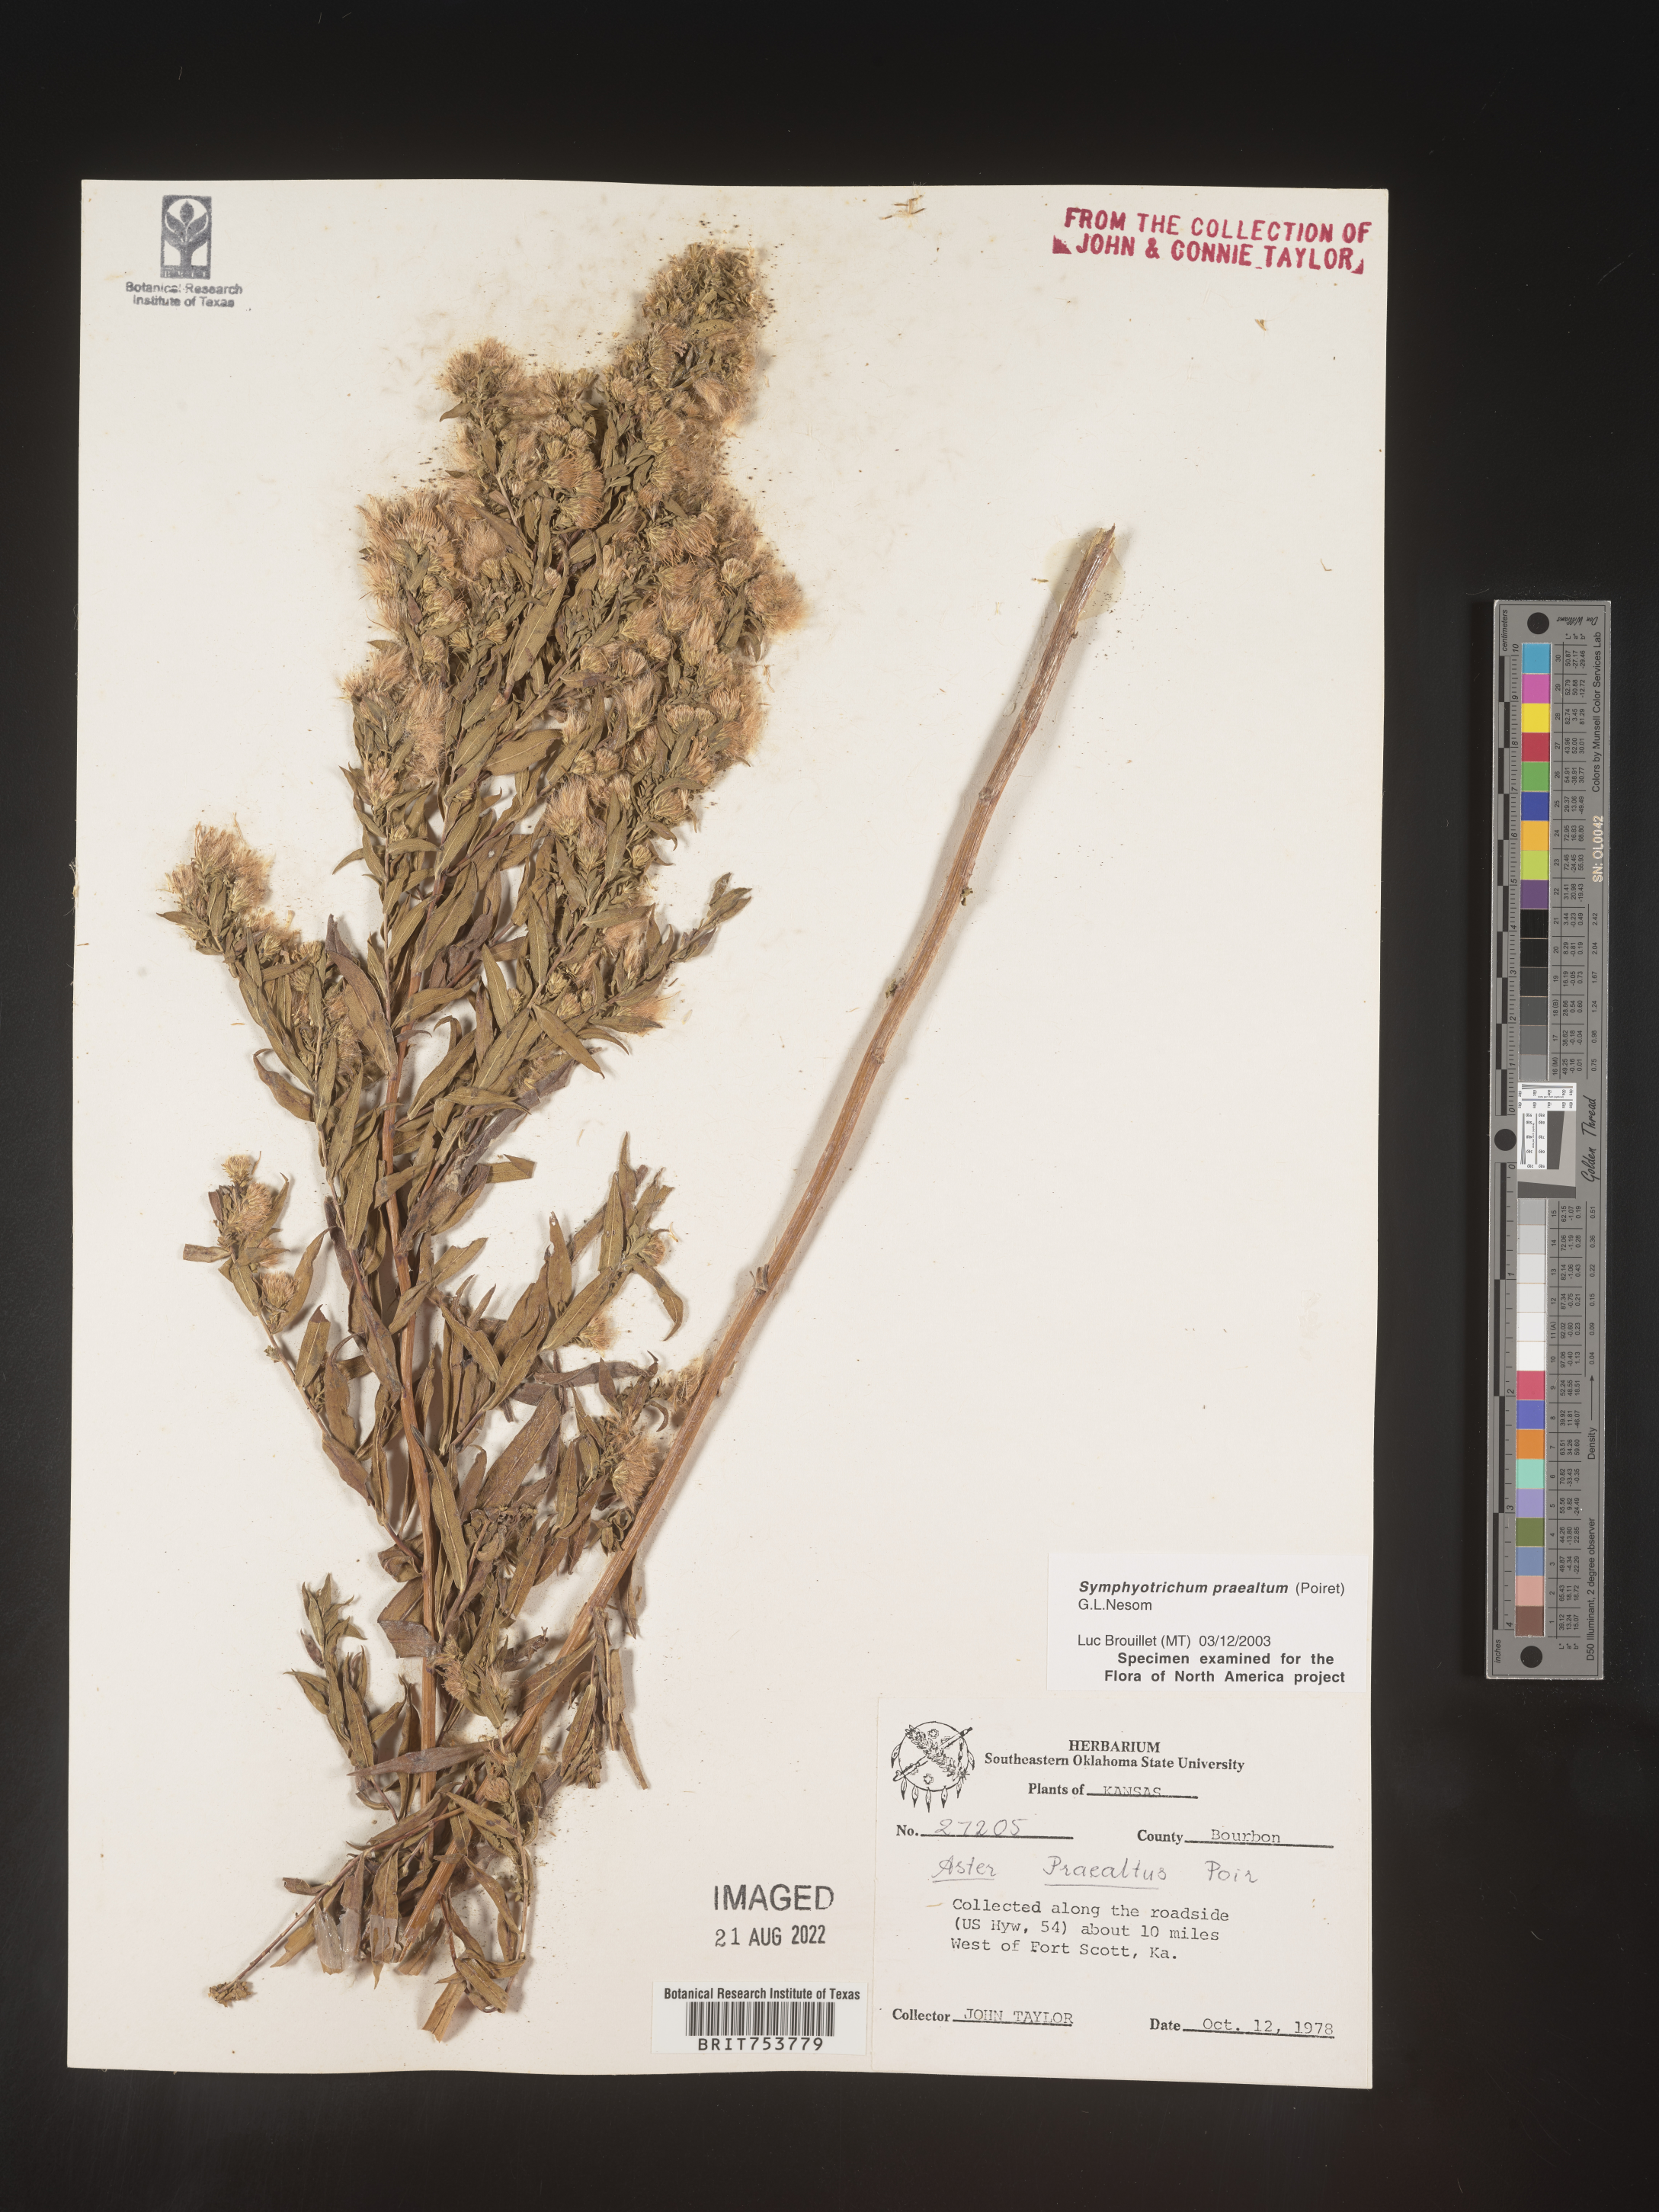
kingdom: Plantae
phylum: Tracheophyta
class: Magnoliopsida
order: Asterales
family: Asteraceae
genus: Symphyotrichum
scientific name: Symphyotrichum praealtum
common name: Willow aster
